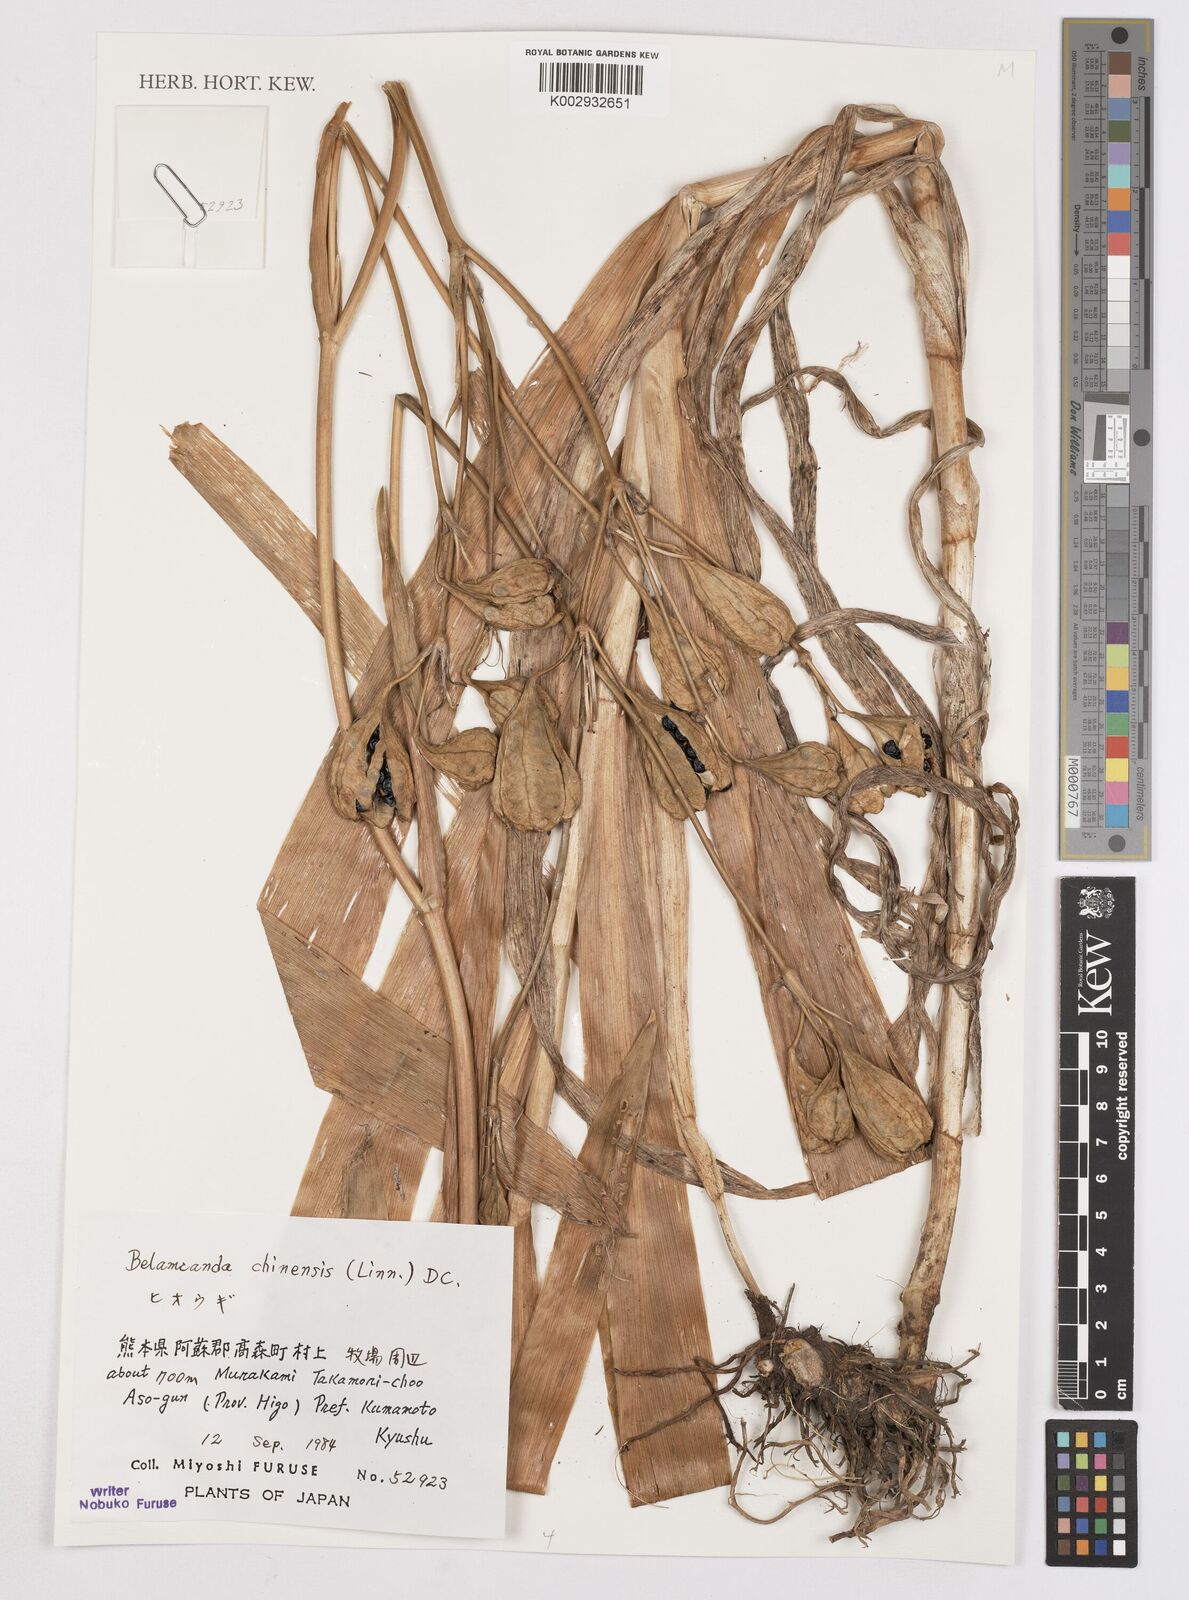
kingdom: Plantae
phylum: Tracheophyta
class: Liliopsida
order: Asparagales
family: Iridaceae
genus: Iris
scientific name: Iris
